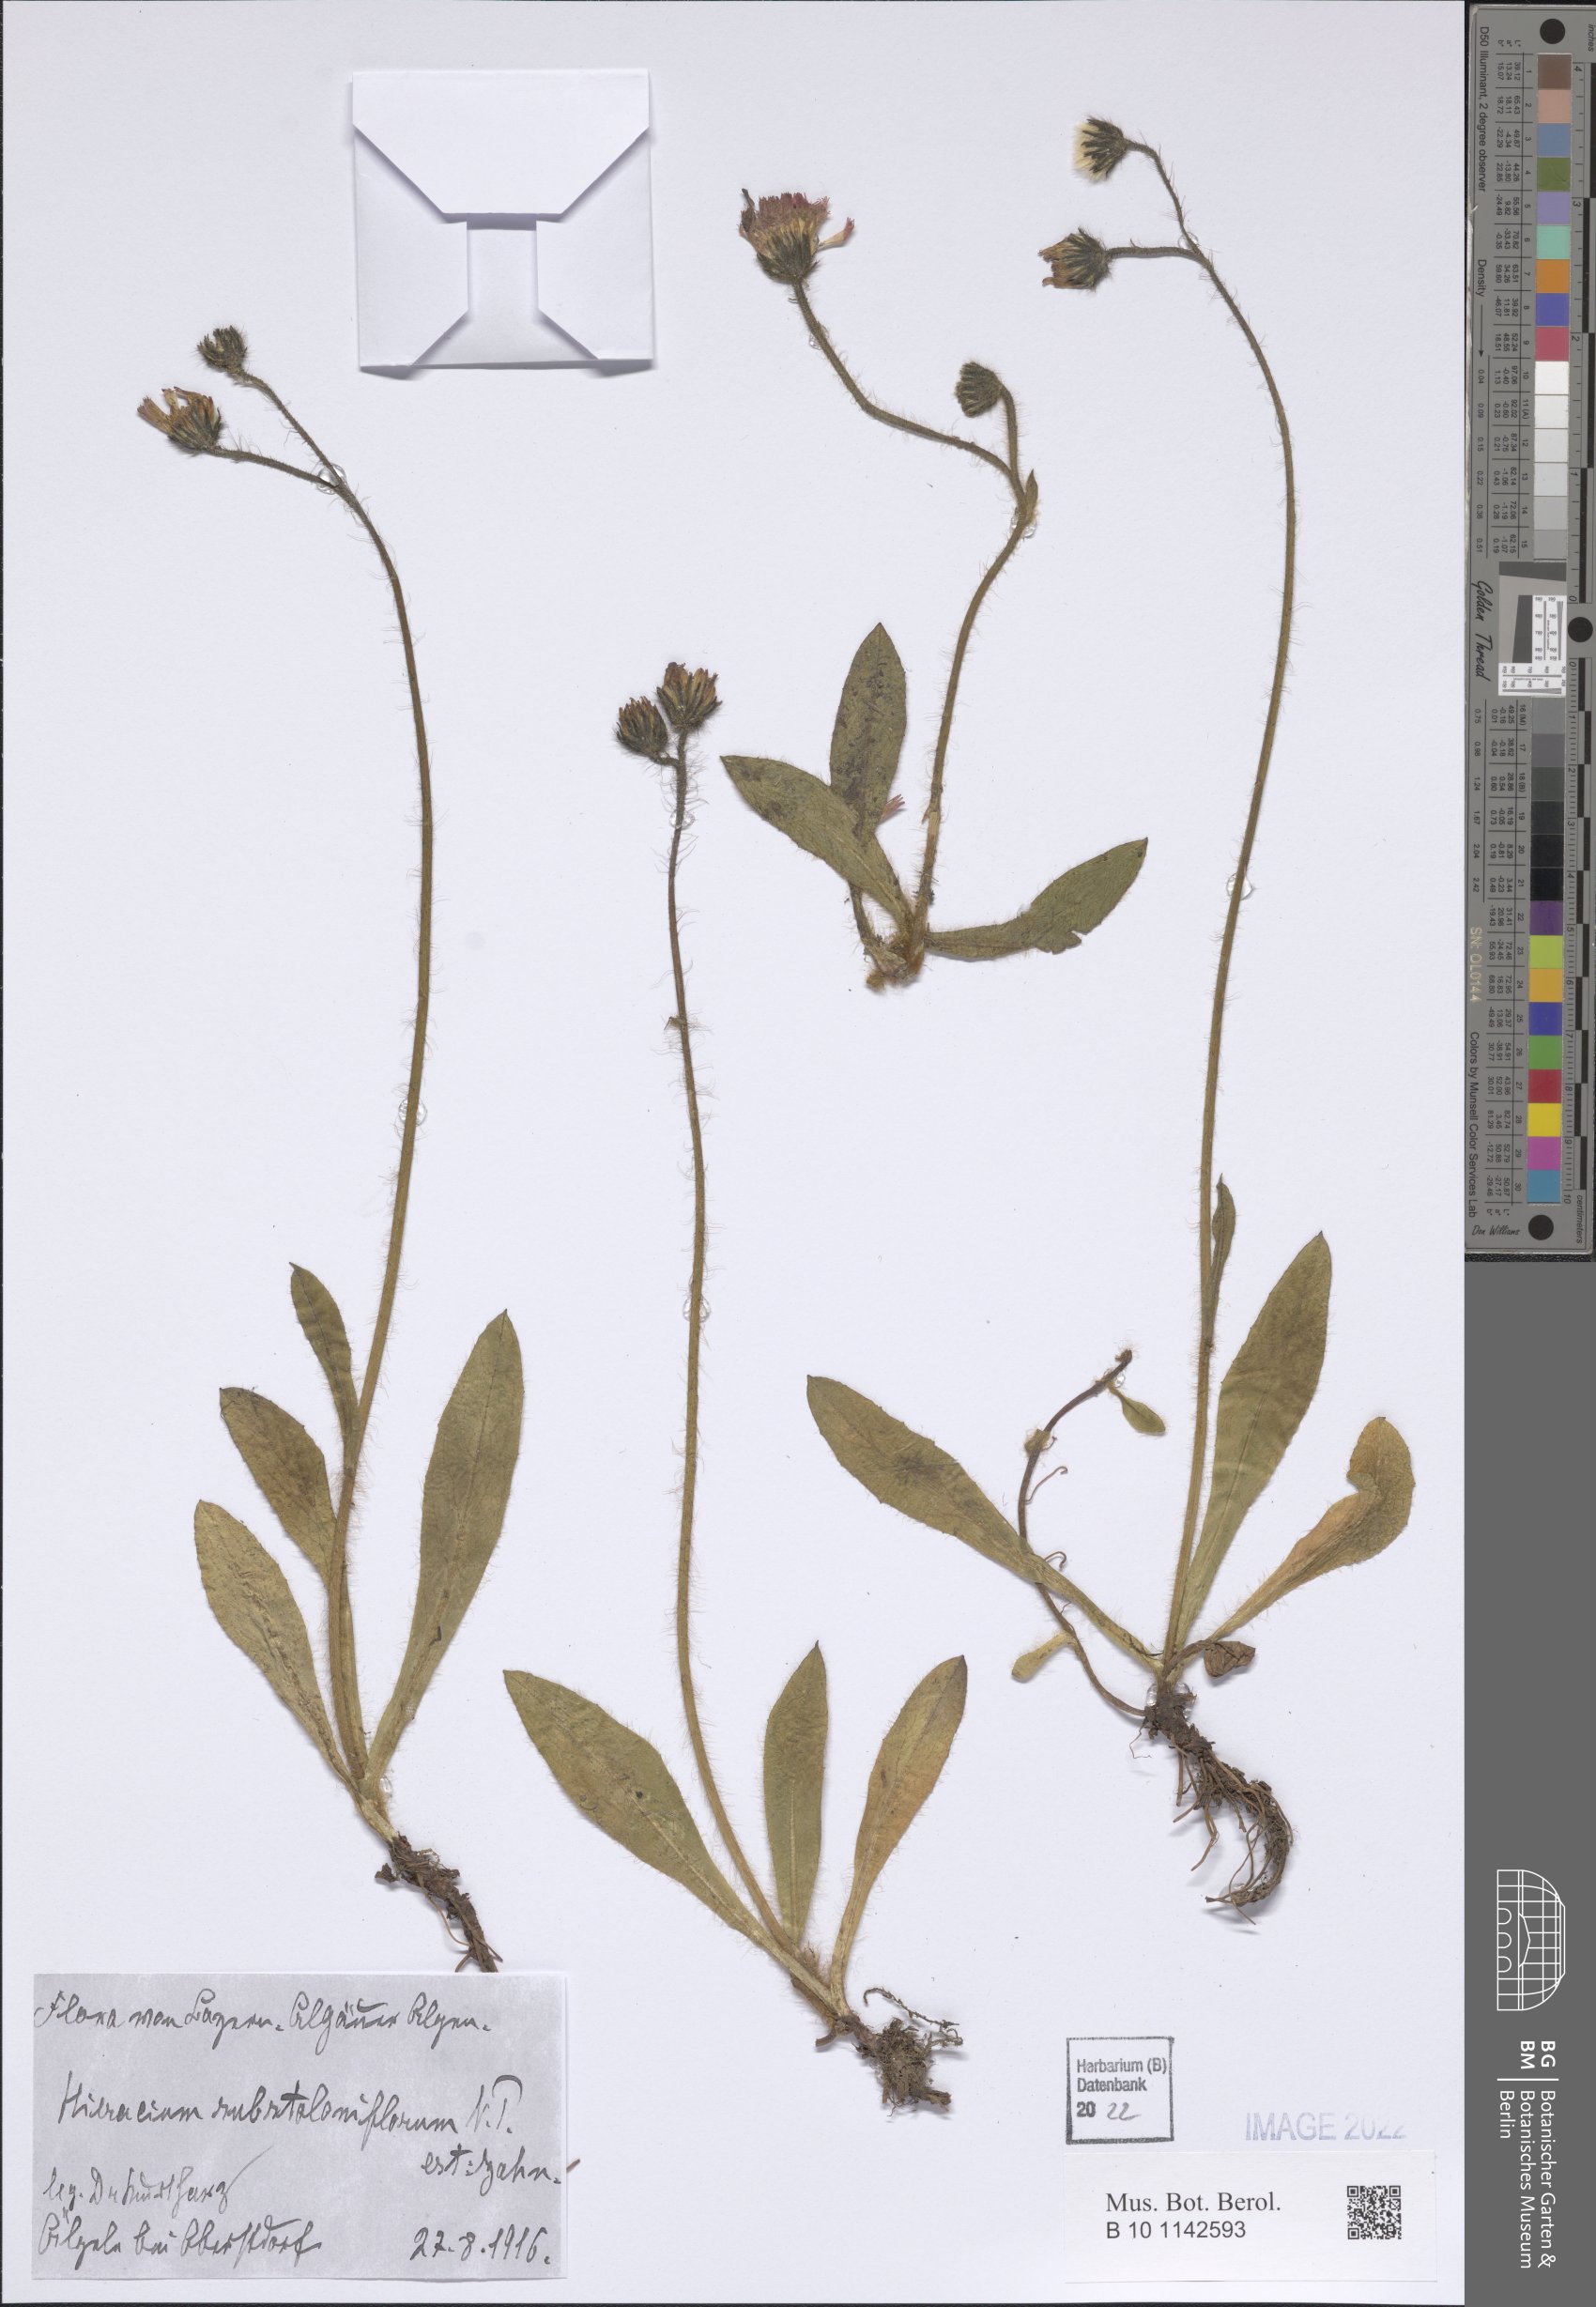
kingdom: Plantae
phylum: Tracheophyta
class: Magnoliopsida
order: Asterales
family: Asteraceae
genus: Pilosella
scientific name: Pilosella rubra
